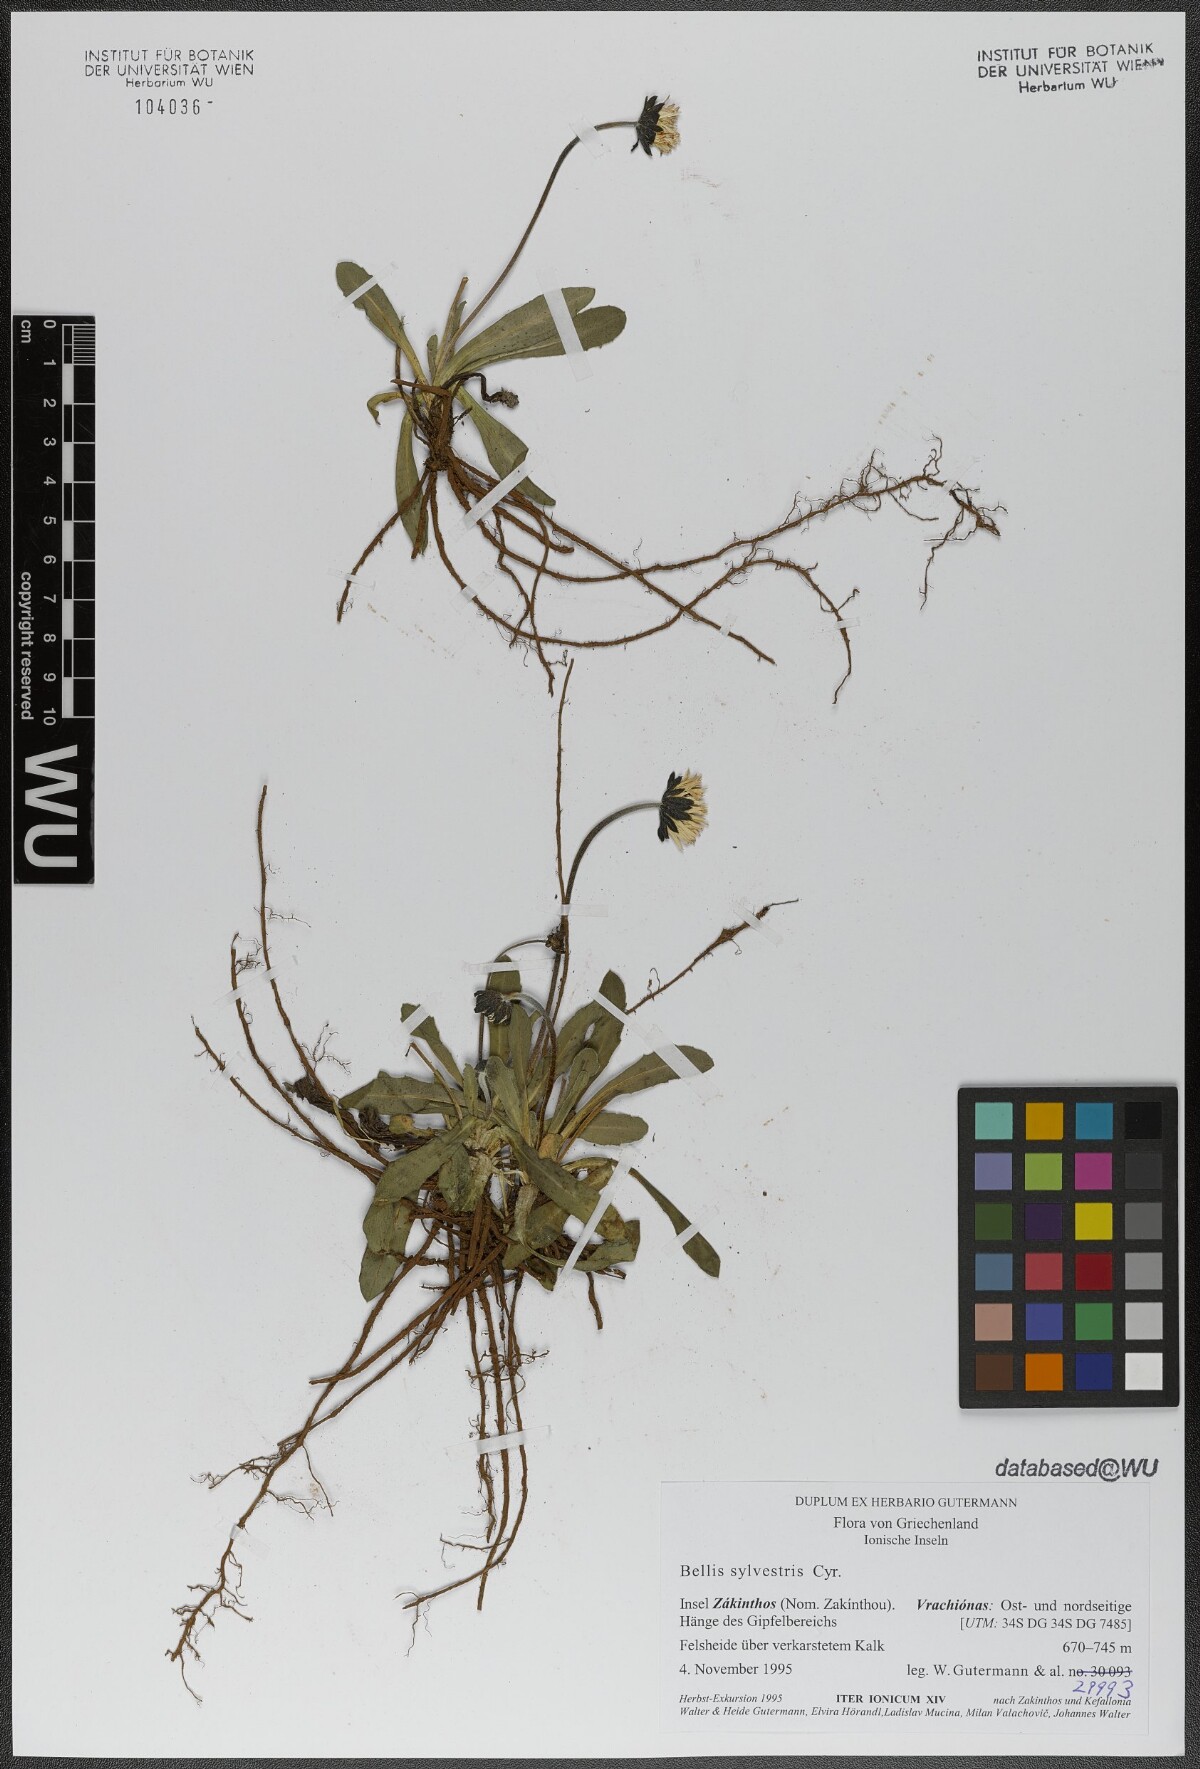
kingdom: Plantae
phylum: Tracheophyta
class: Magnoliopsida
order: Asterales
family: Asteraceae
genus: Bellis
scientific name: Bellis sylvestris
